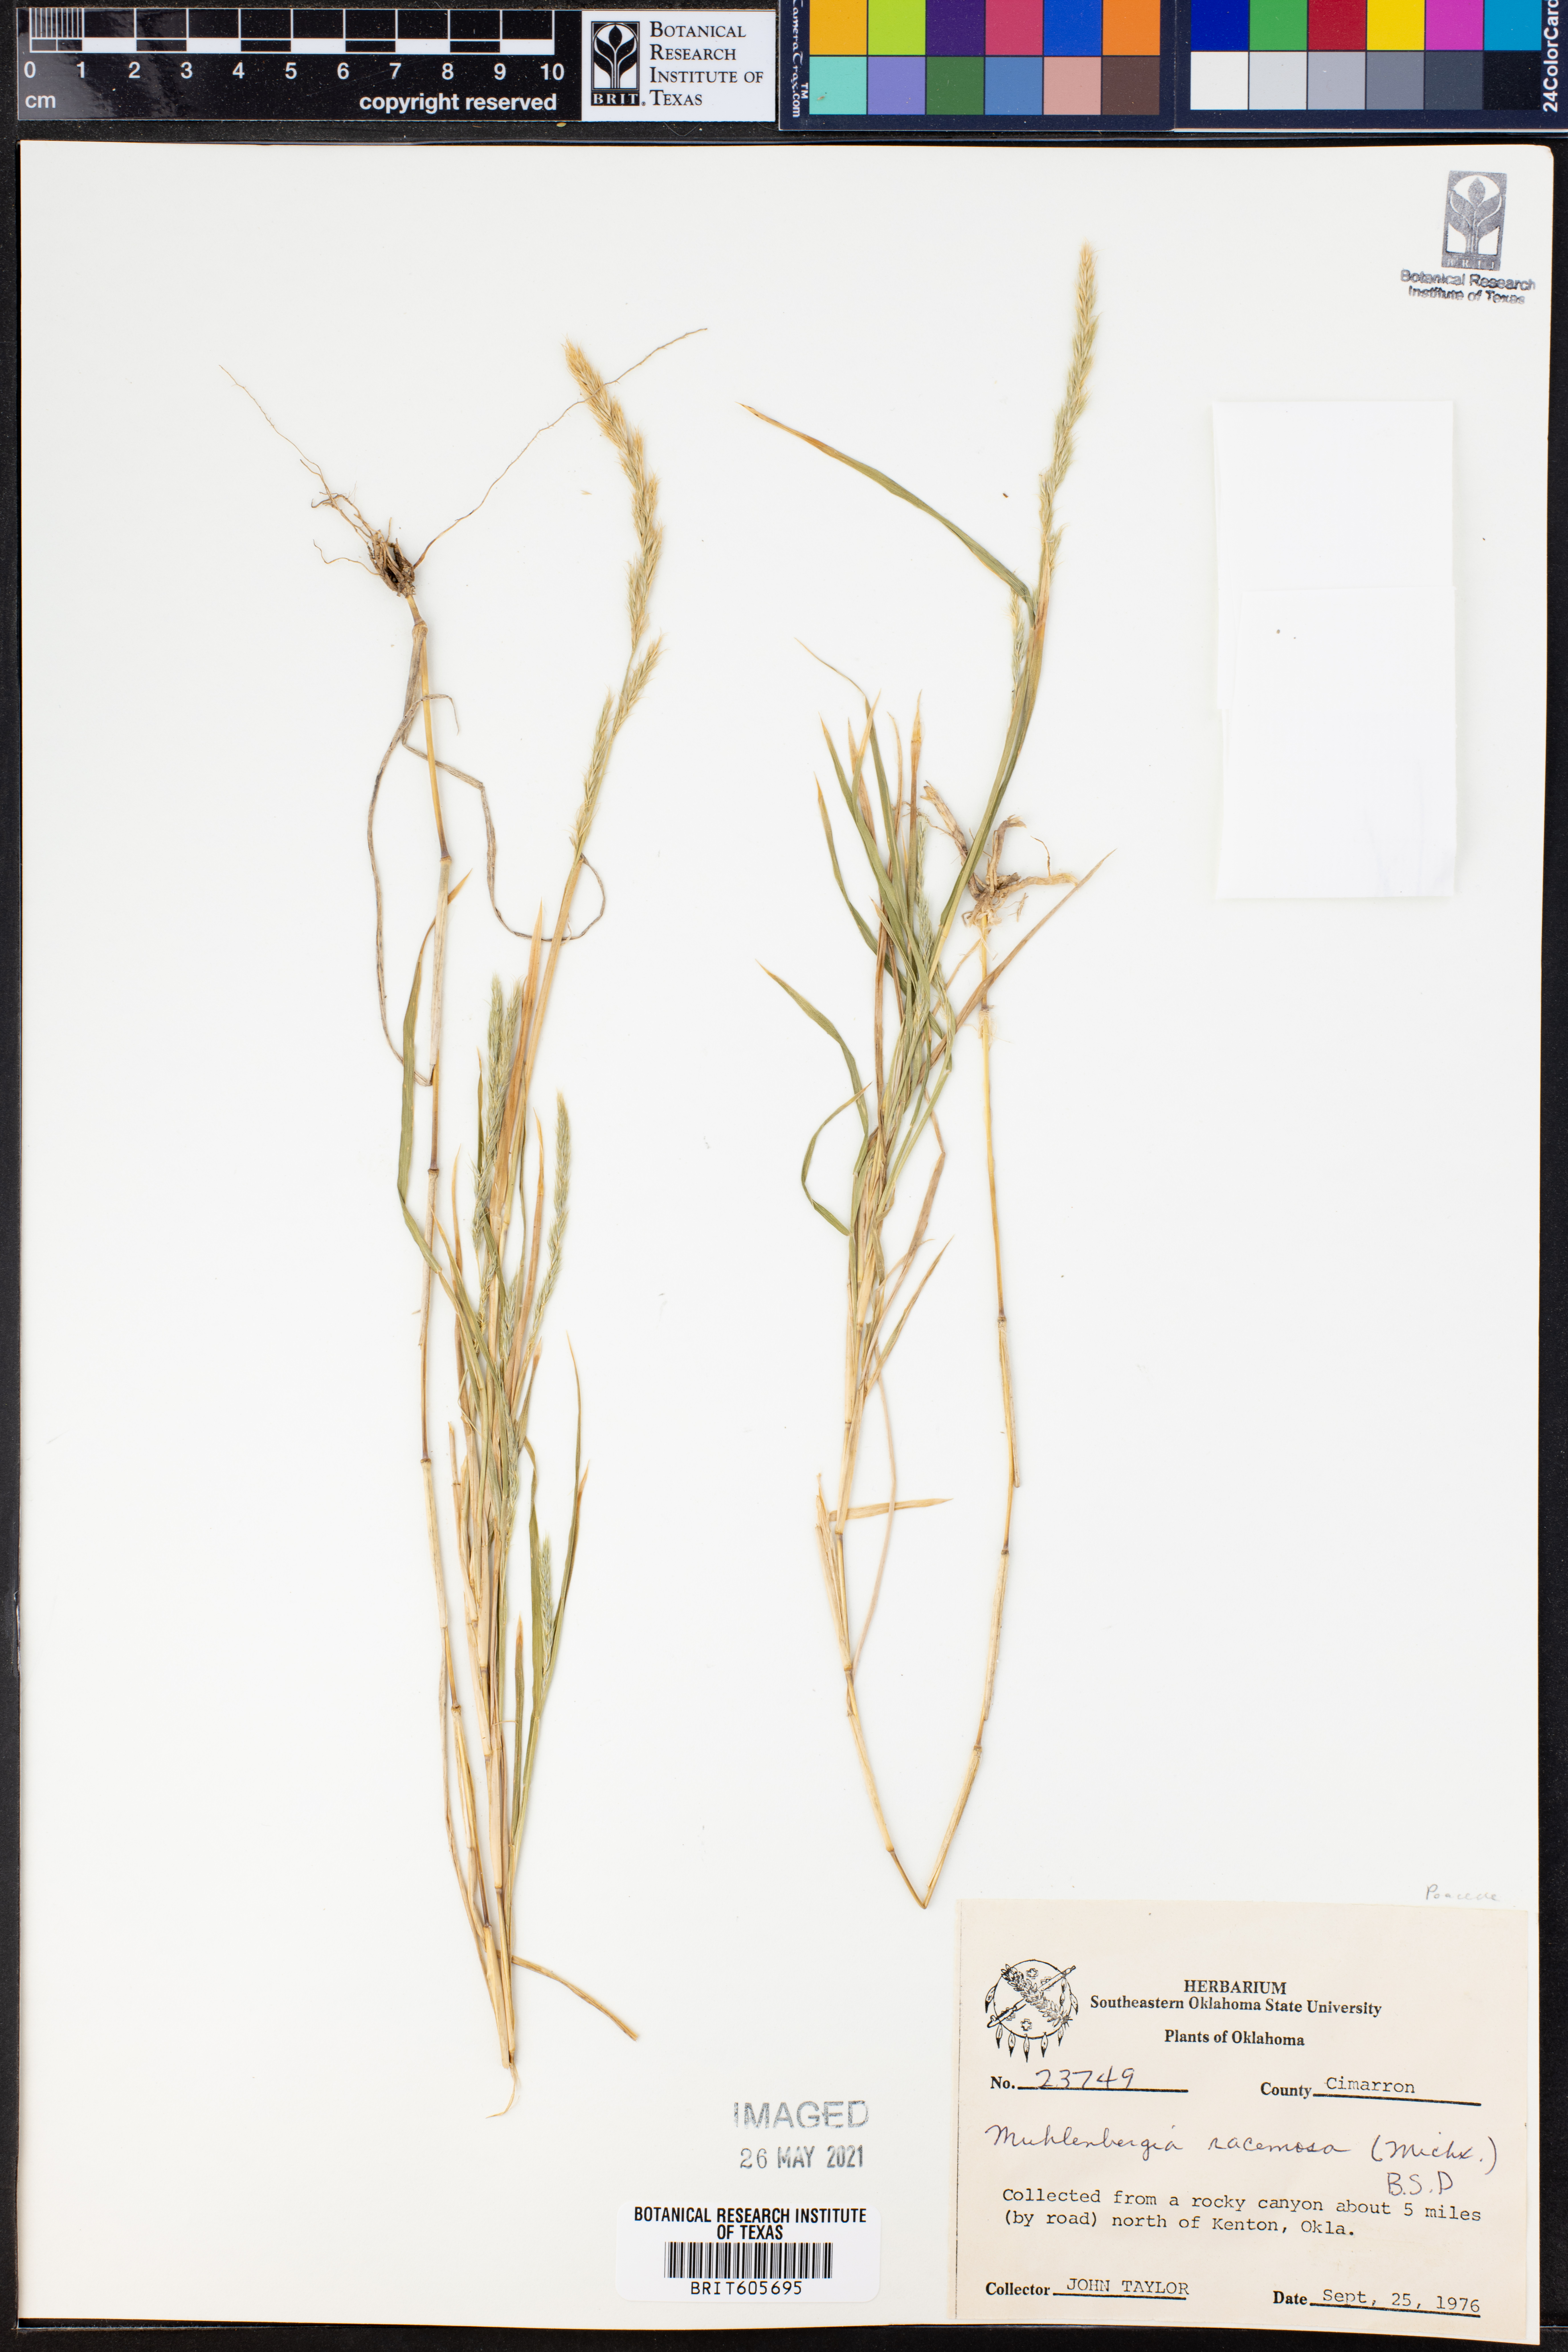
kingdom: Plantae
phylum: Tracheophyta
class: Liliopsida
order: Poales
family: Poaceae
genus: Muhlenbergia
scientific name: Muhlenbergia racemosa
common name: Green muhly
